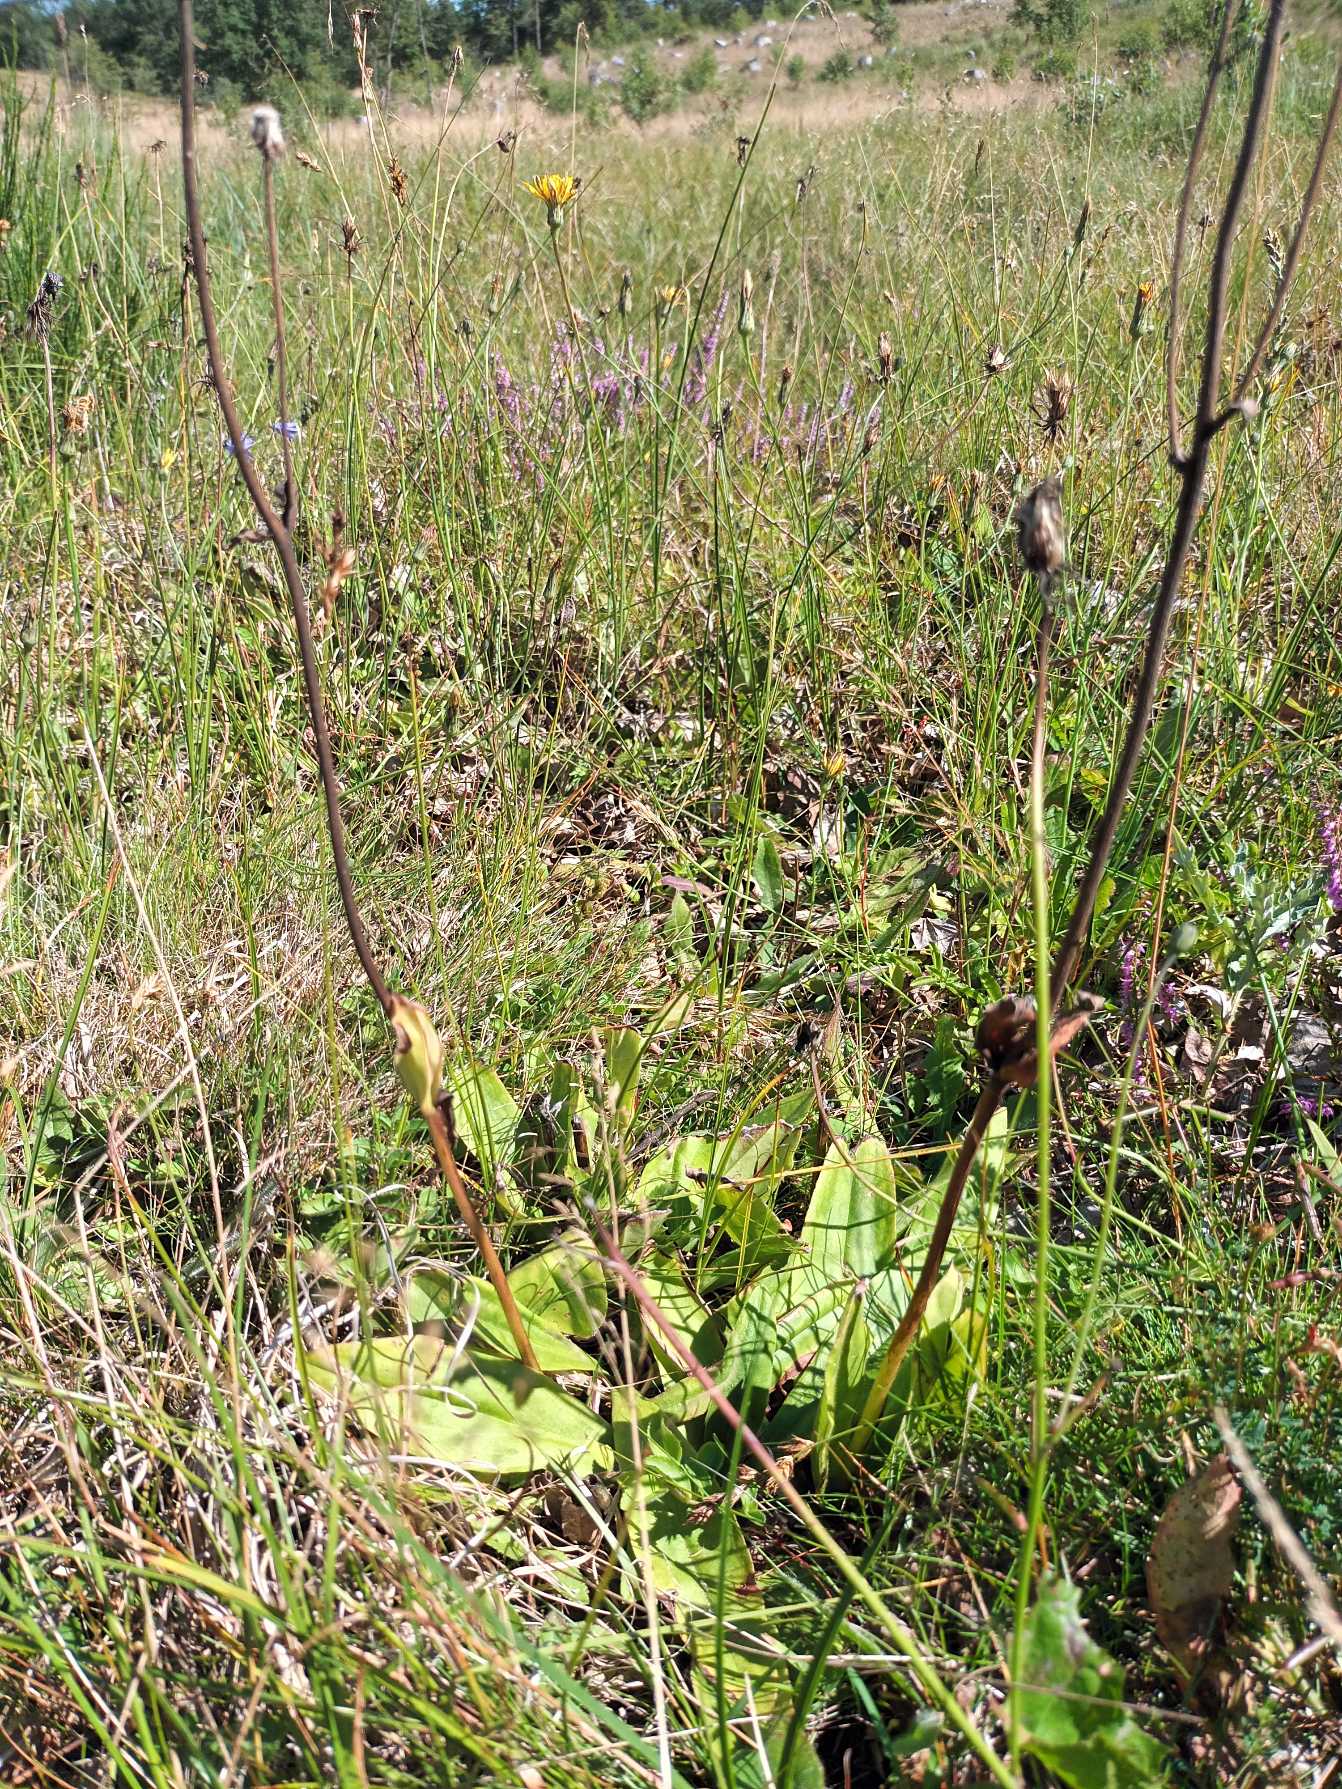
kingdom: Plantae
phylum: Tracheophyta
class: Magnoliopsida
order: Asterales
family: Asteraceae
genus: Arnica
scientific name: Arnica montana
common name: Guldblomme
